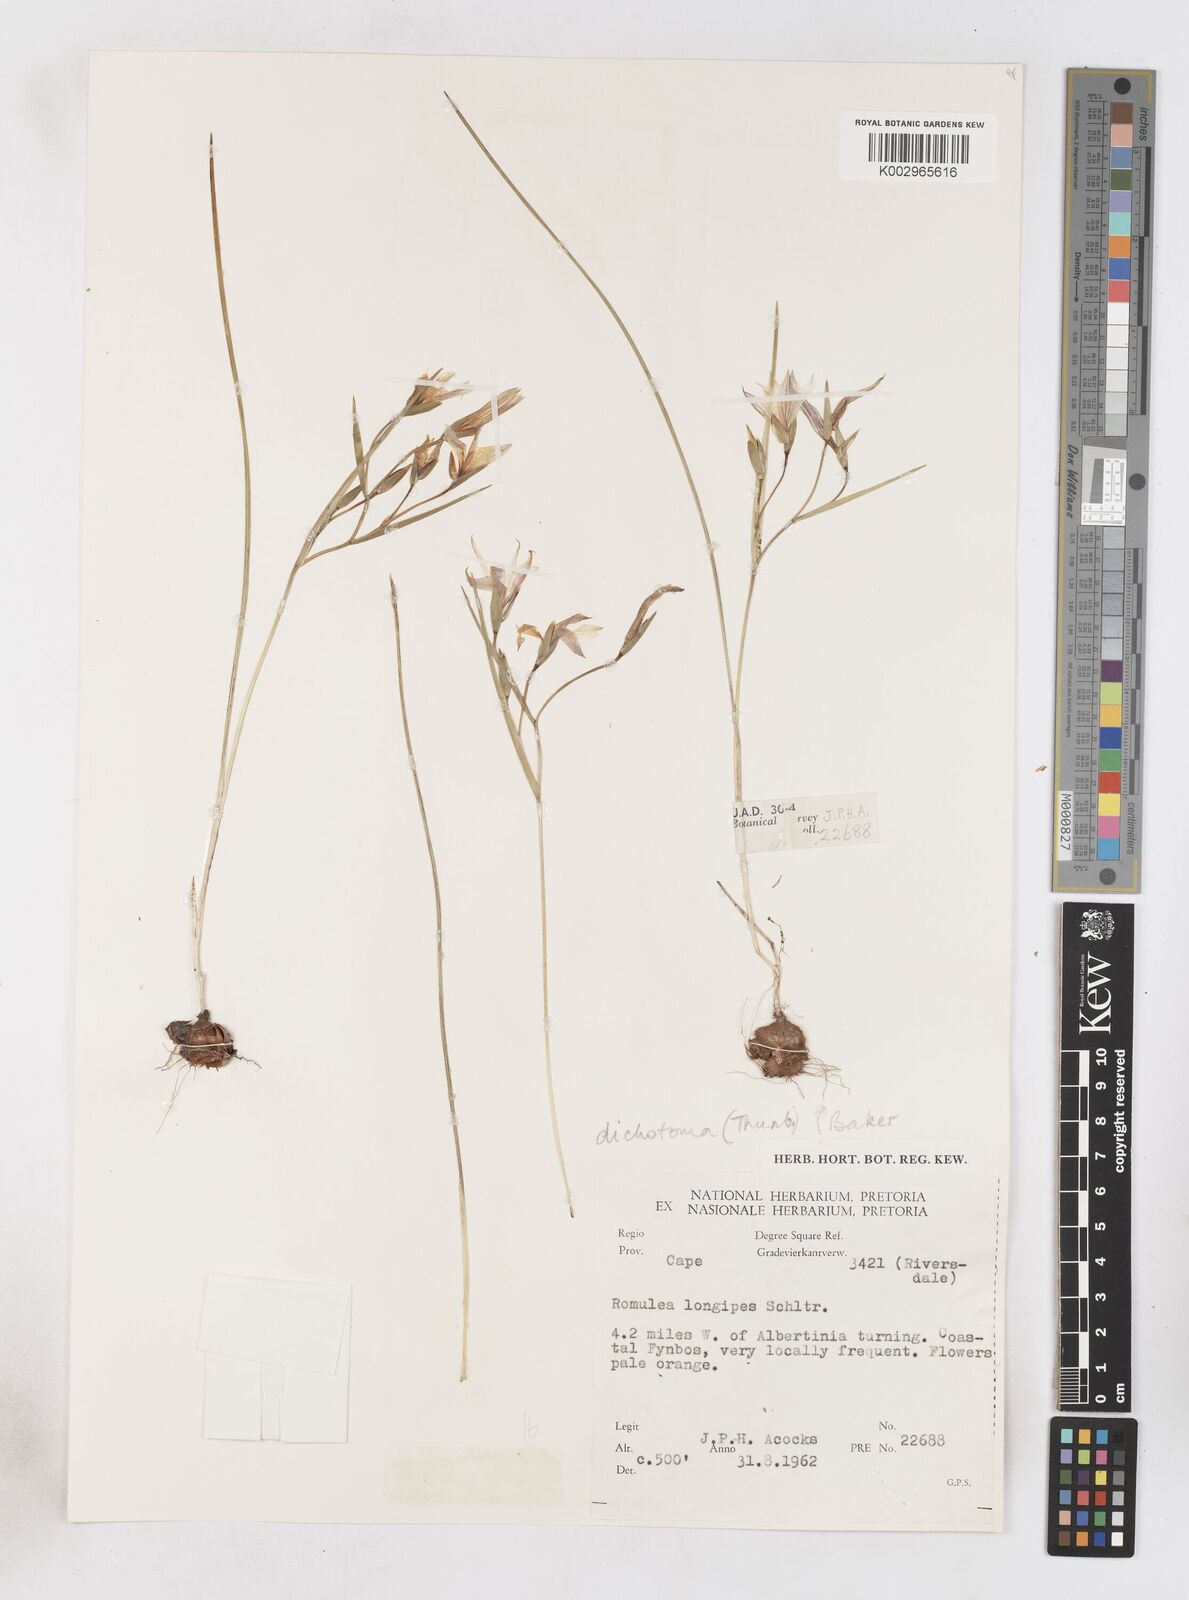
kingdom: Plantae
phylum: Tracheophyta
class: Liliopsida
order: Asparagales
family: Iridaceae
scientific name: Iridaceae
